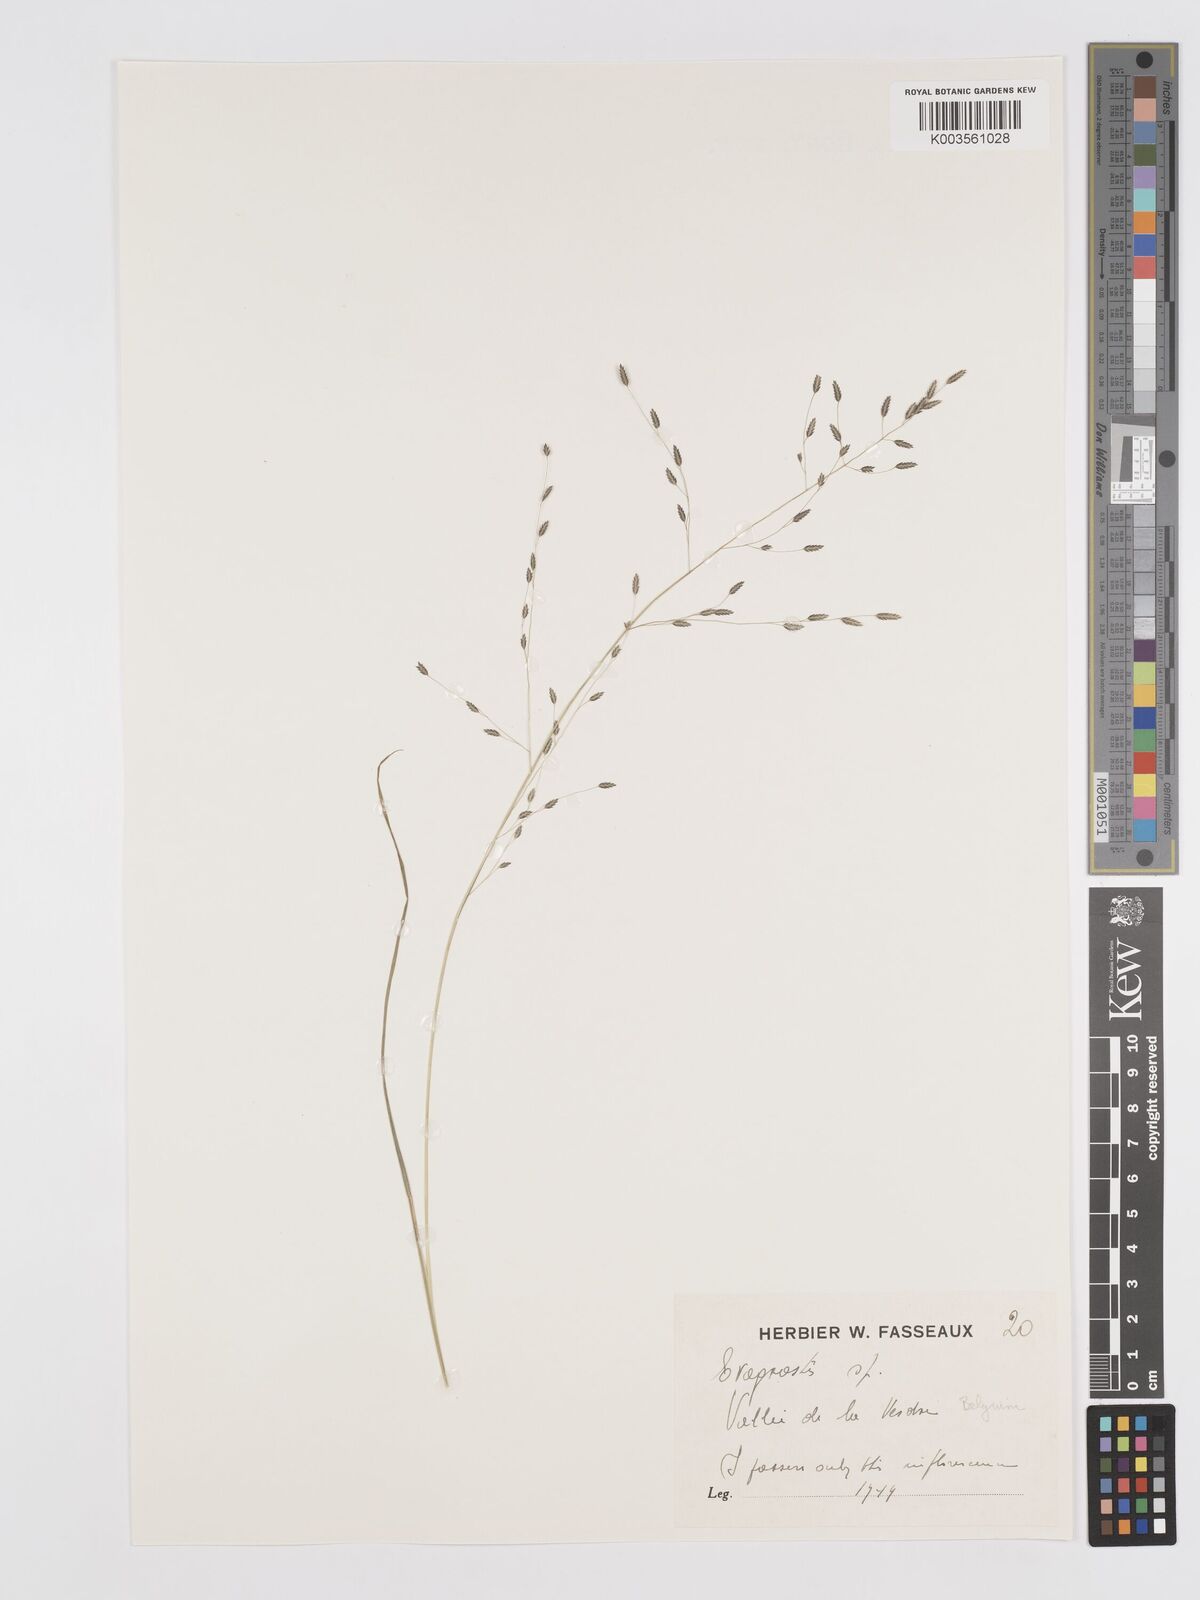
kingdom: Plantae
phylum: Tracheophyta
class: Liliopsida
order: Poales
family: Poaceae
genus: Eragrostis
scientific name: Eragrostis
